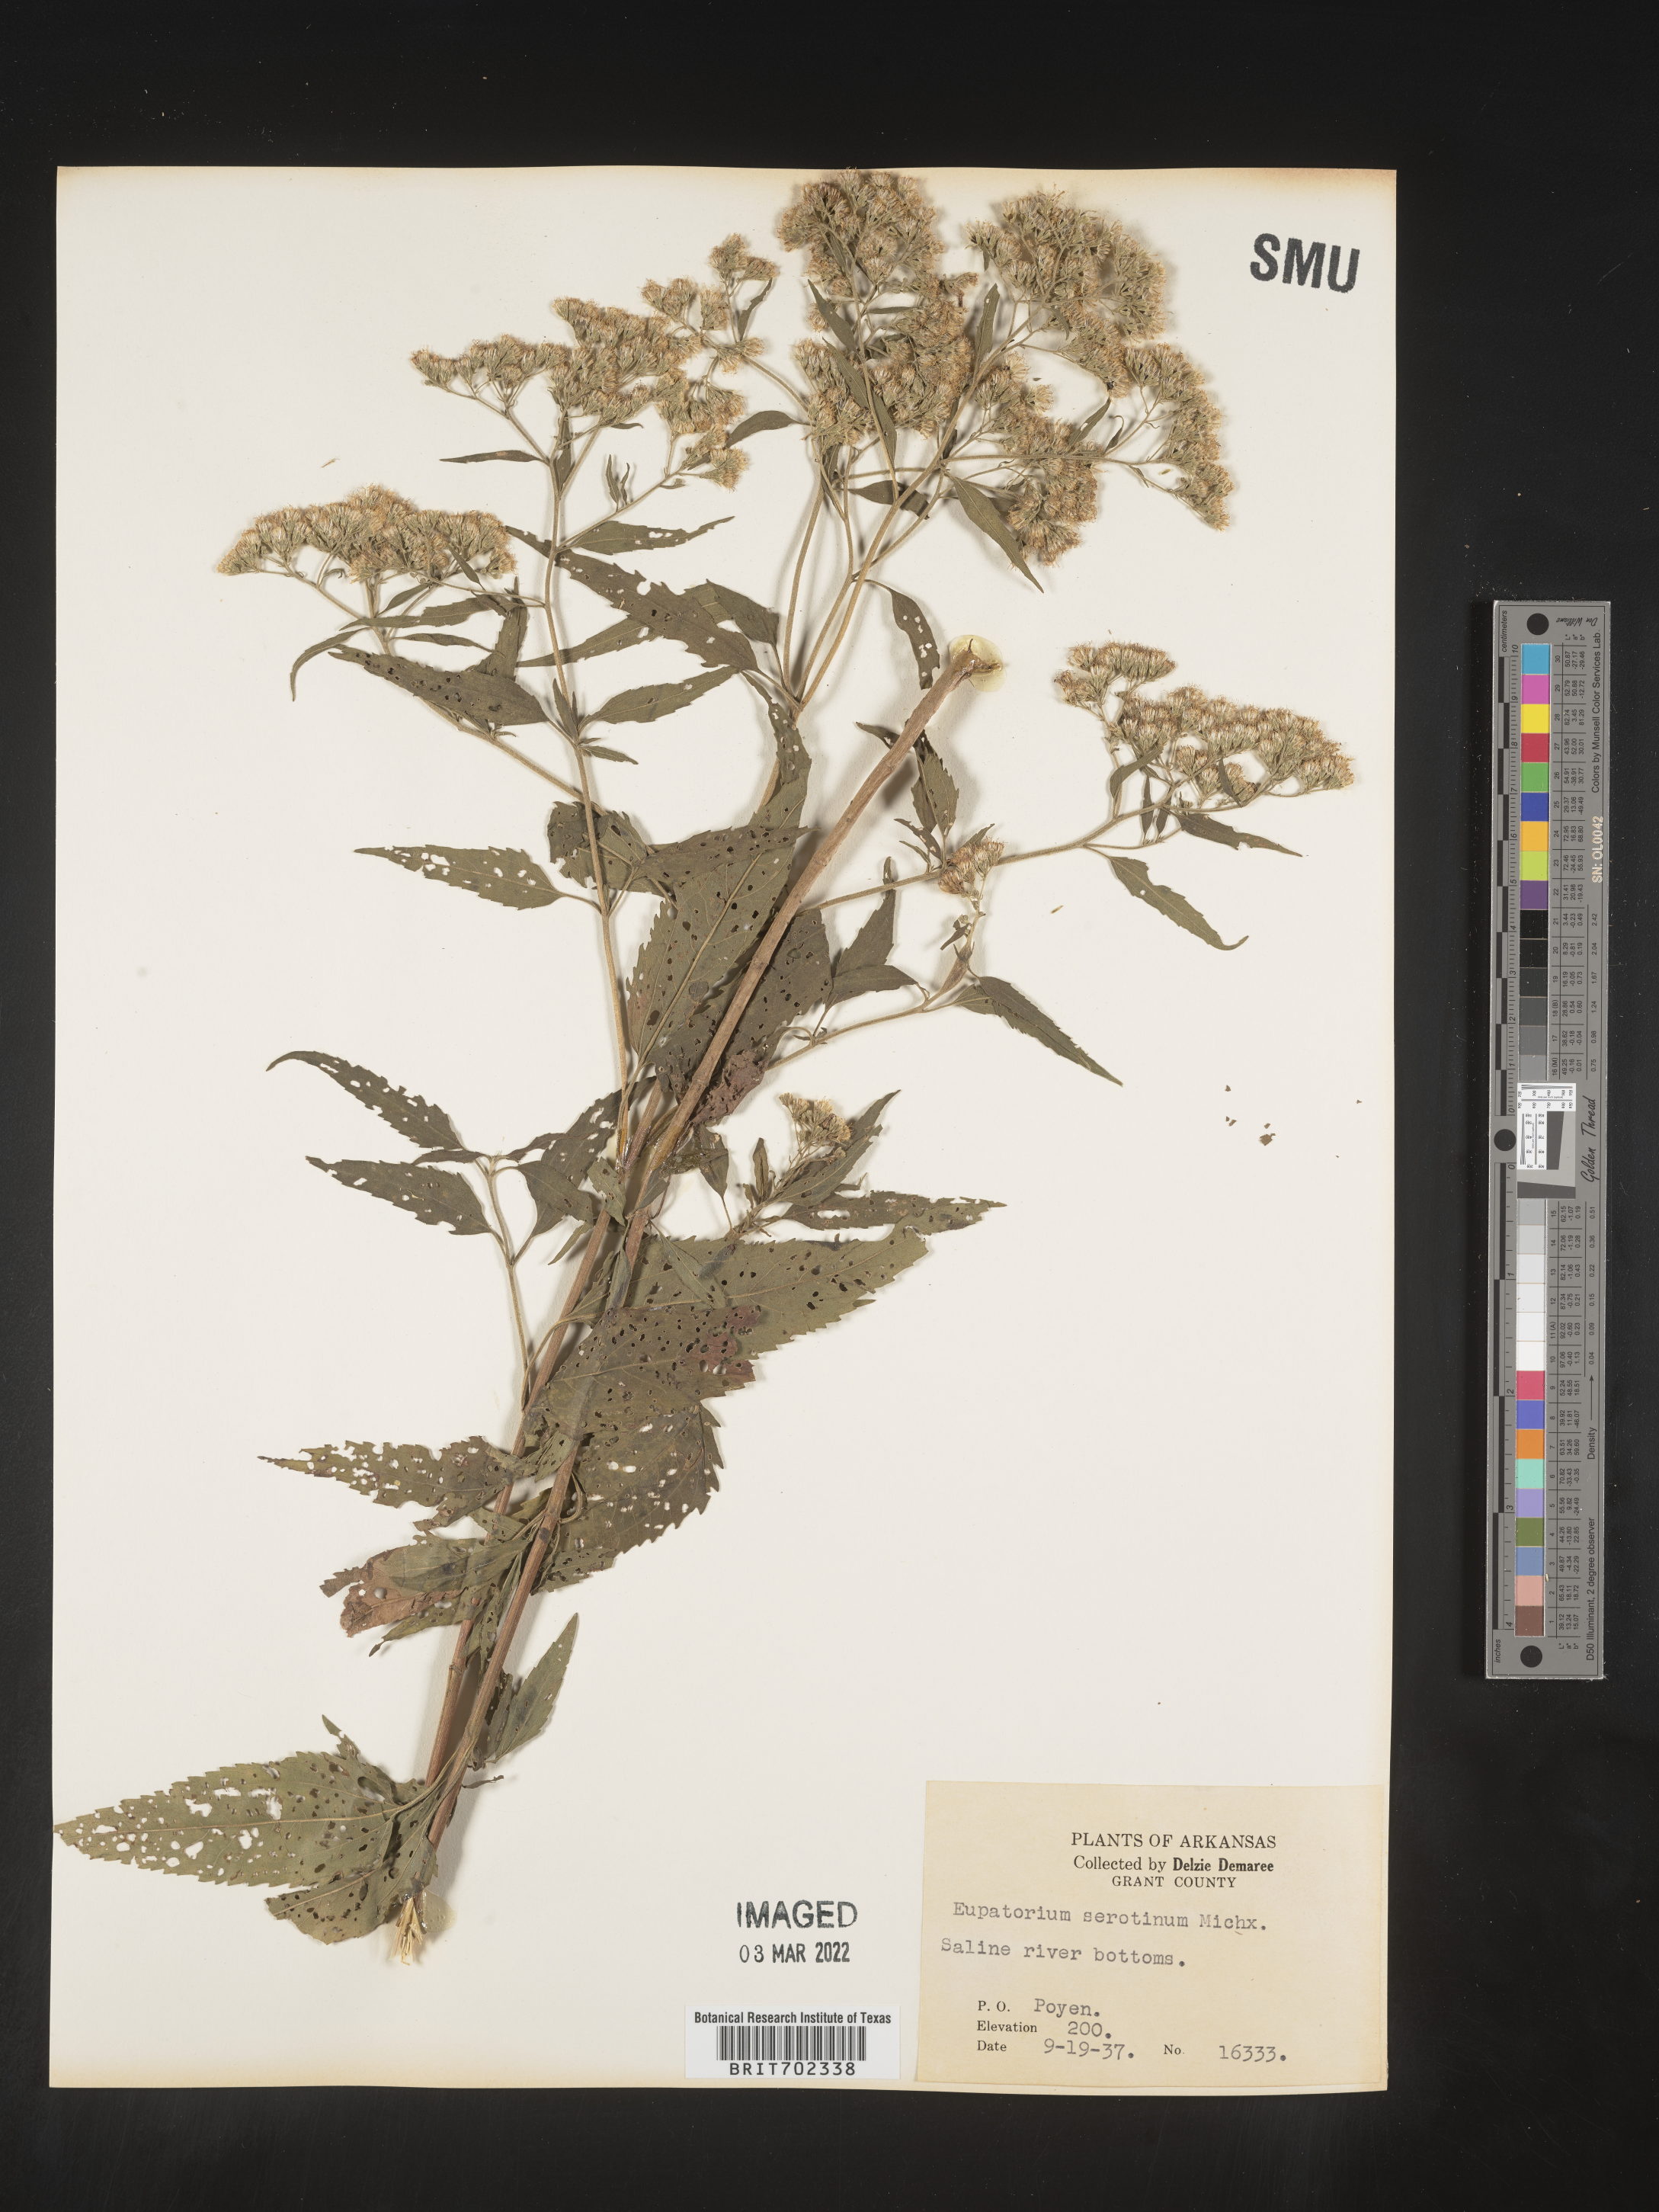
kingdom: Plantae
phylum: Tracheophyta
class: Magnoliopsida
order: Asterales
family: Asteraceae
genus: Eupatorium
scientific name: Eupatorium serotinum
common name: Late boneset
